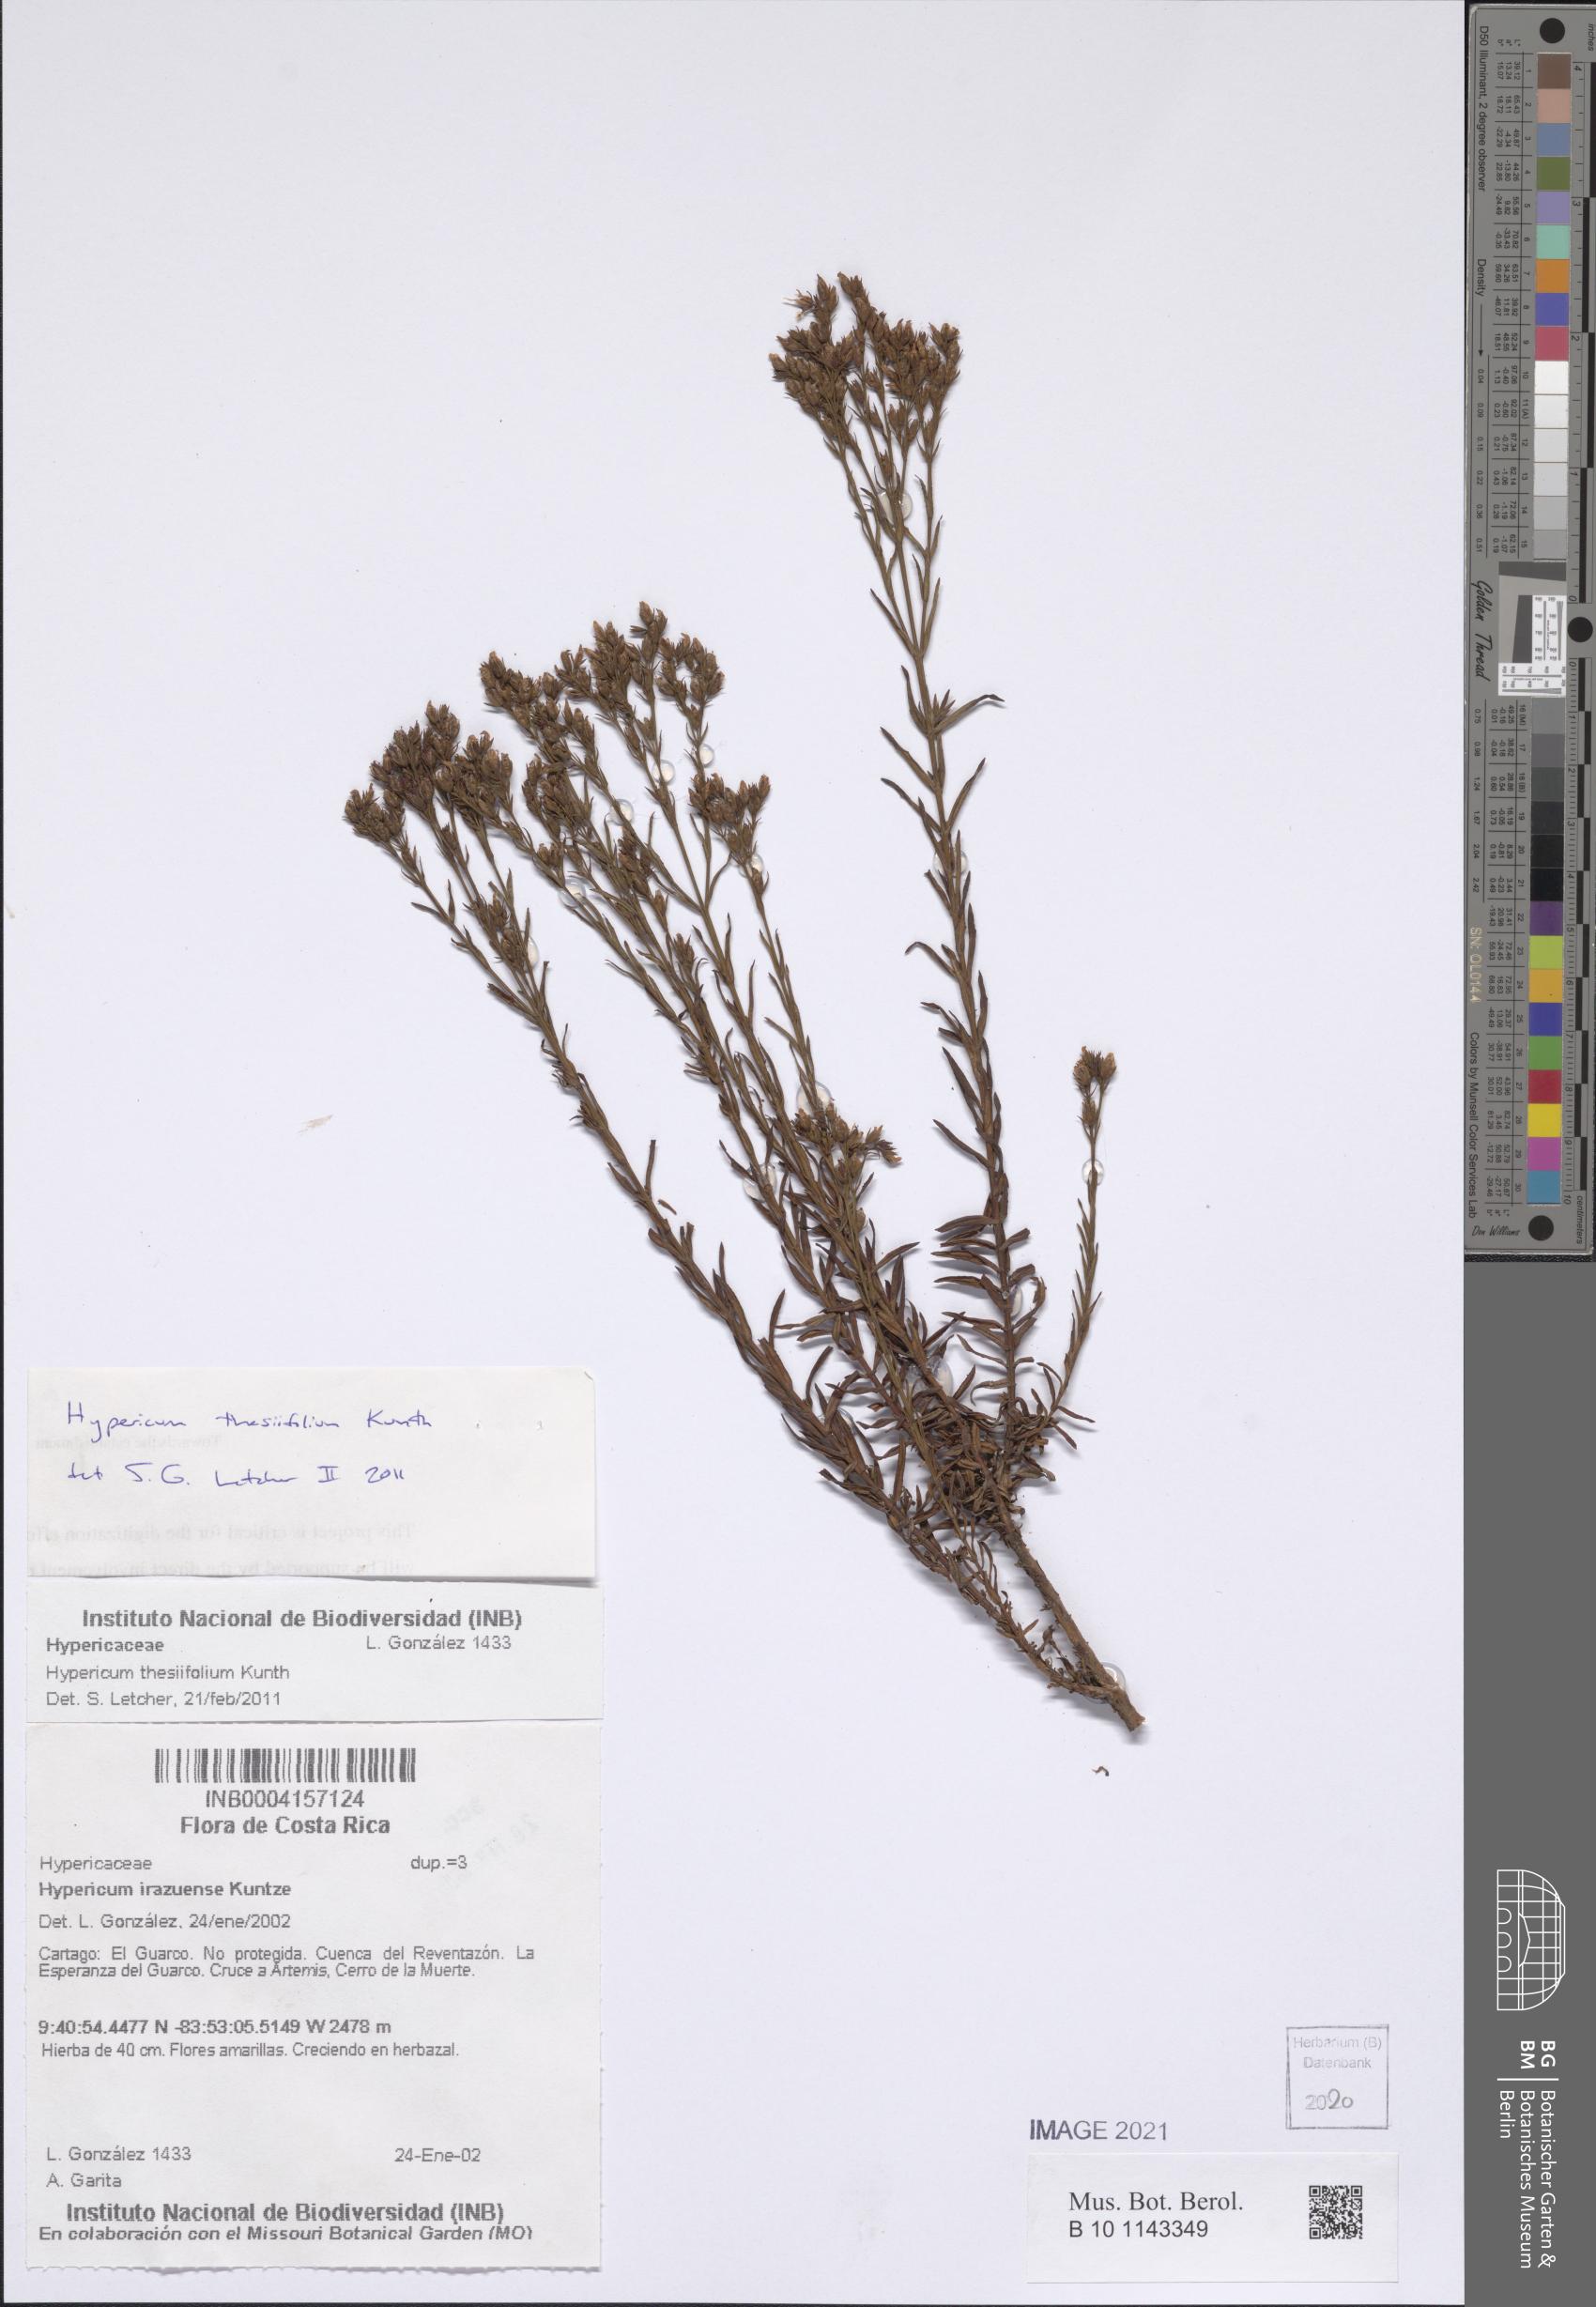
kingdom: Plantae
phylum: Tracheophyta
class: Magnoliopsida
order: Malpighiales
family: Hypericaceae
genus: Hypericum
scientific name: Hypericum thesiifolium
